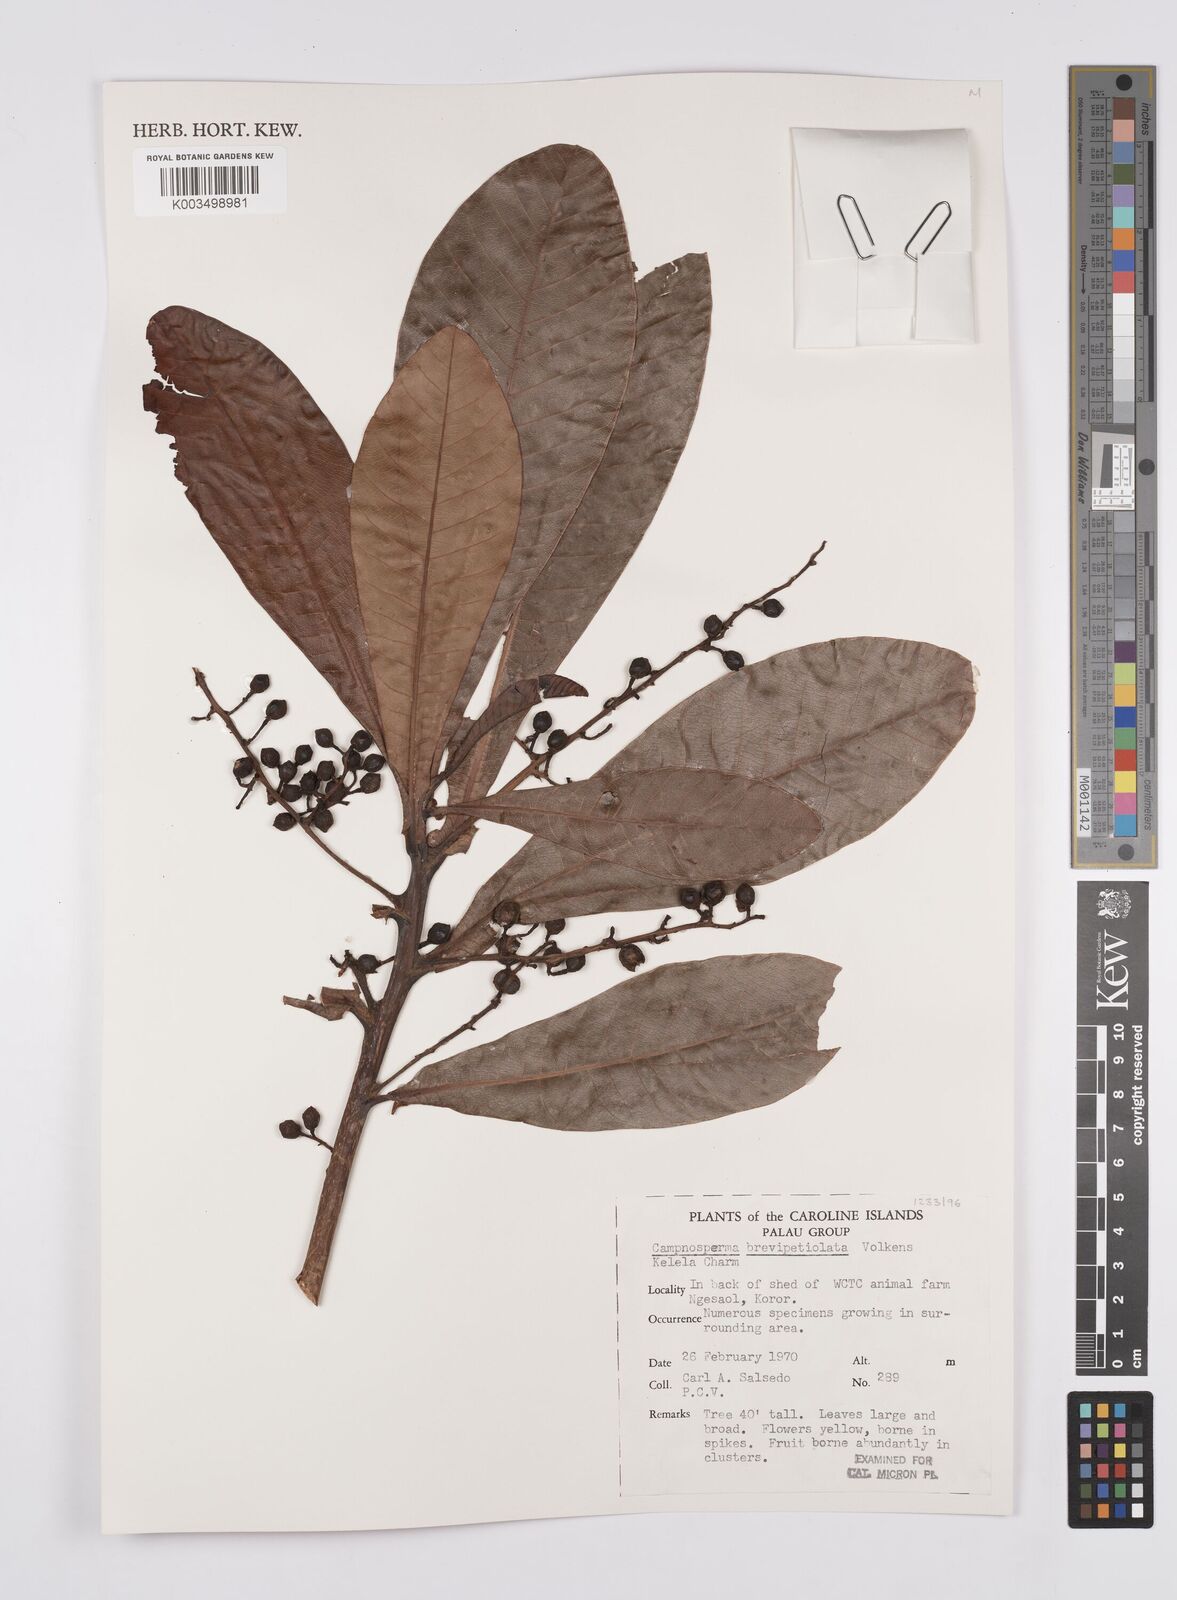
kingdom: Plantae
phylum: Tracheophyta
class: Magnoliopsida
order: Sapindales
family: Anacardiaceae
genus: Campnosperma
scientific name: Campnosperma brevipetiolatum
